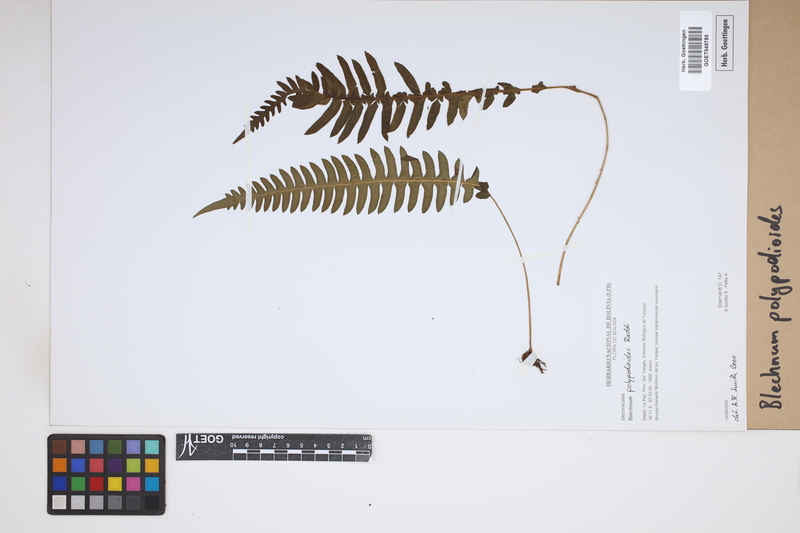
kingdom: Plantae
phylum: Tracheophyta
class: Polypodiopsida
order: Polypodiales
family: Blechnaceae
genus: Blechnum
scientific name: Blechnum polypodioides
